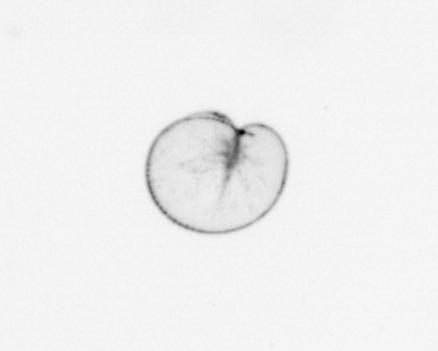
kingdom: Chromista
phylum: Myzozoa
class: Dinophyceae
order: Noctilucales
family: Noctilucaceae
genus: Noctiluca
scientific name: Noctiluca scintillans
